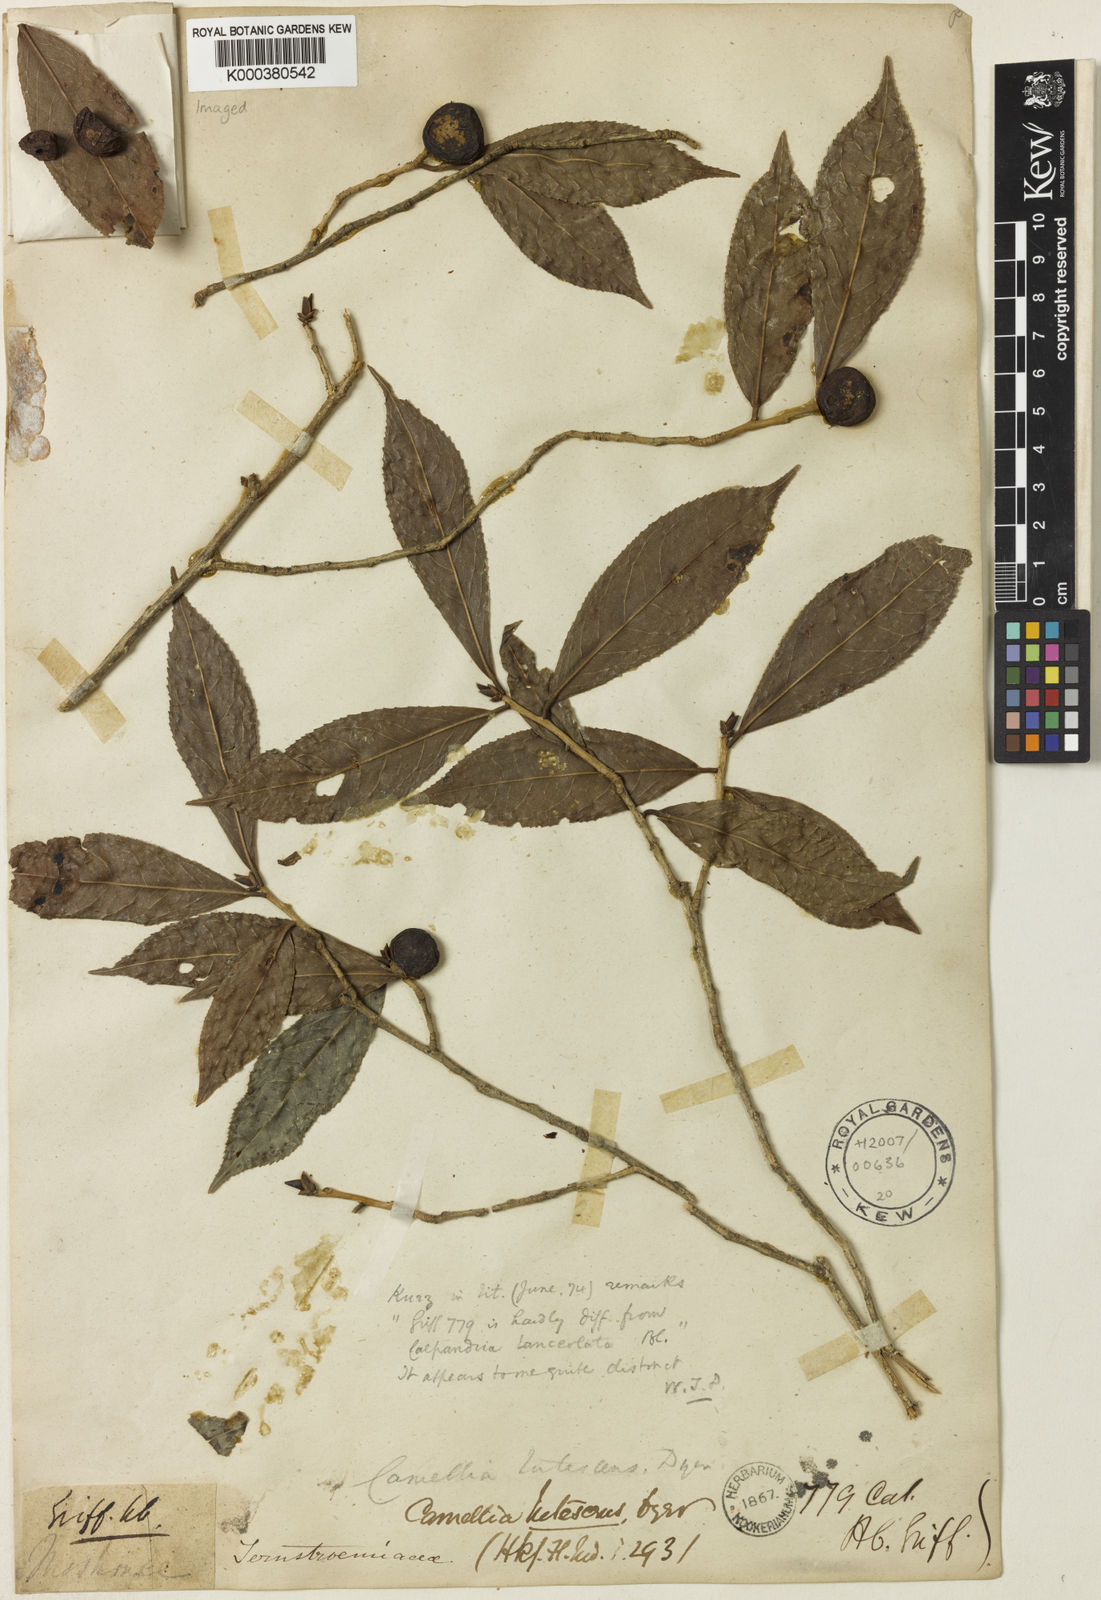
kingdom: Plantae
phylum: Tracheophyta
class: Magnoliopsida
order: Ericales
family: Theaceae
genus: Camellia
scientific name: Camellia kissii
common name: Nepal camellia
